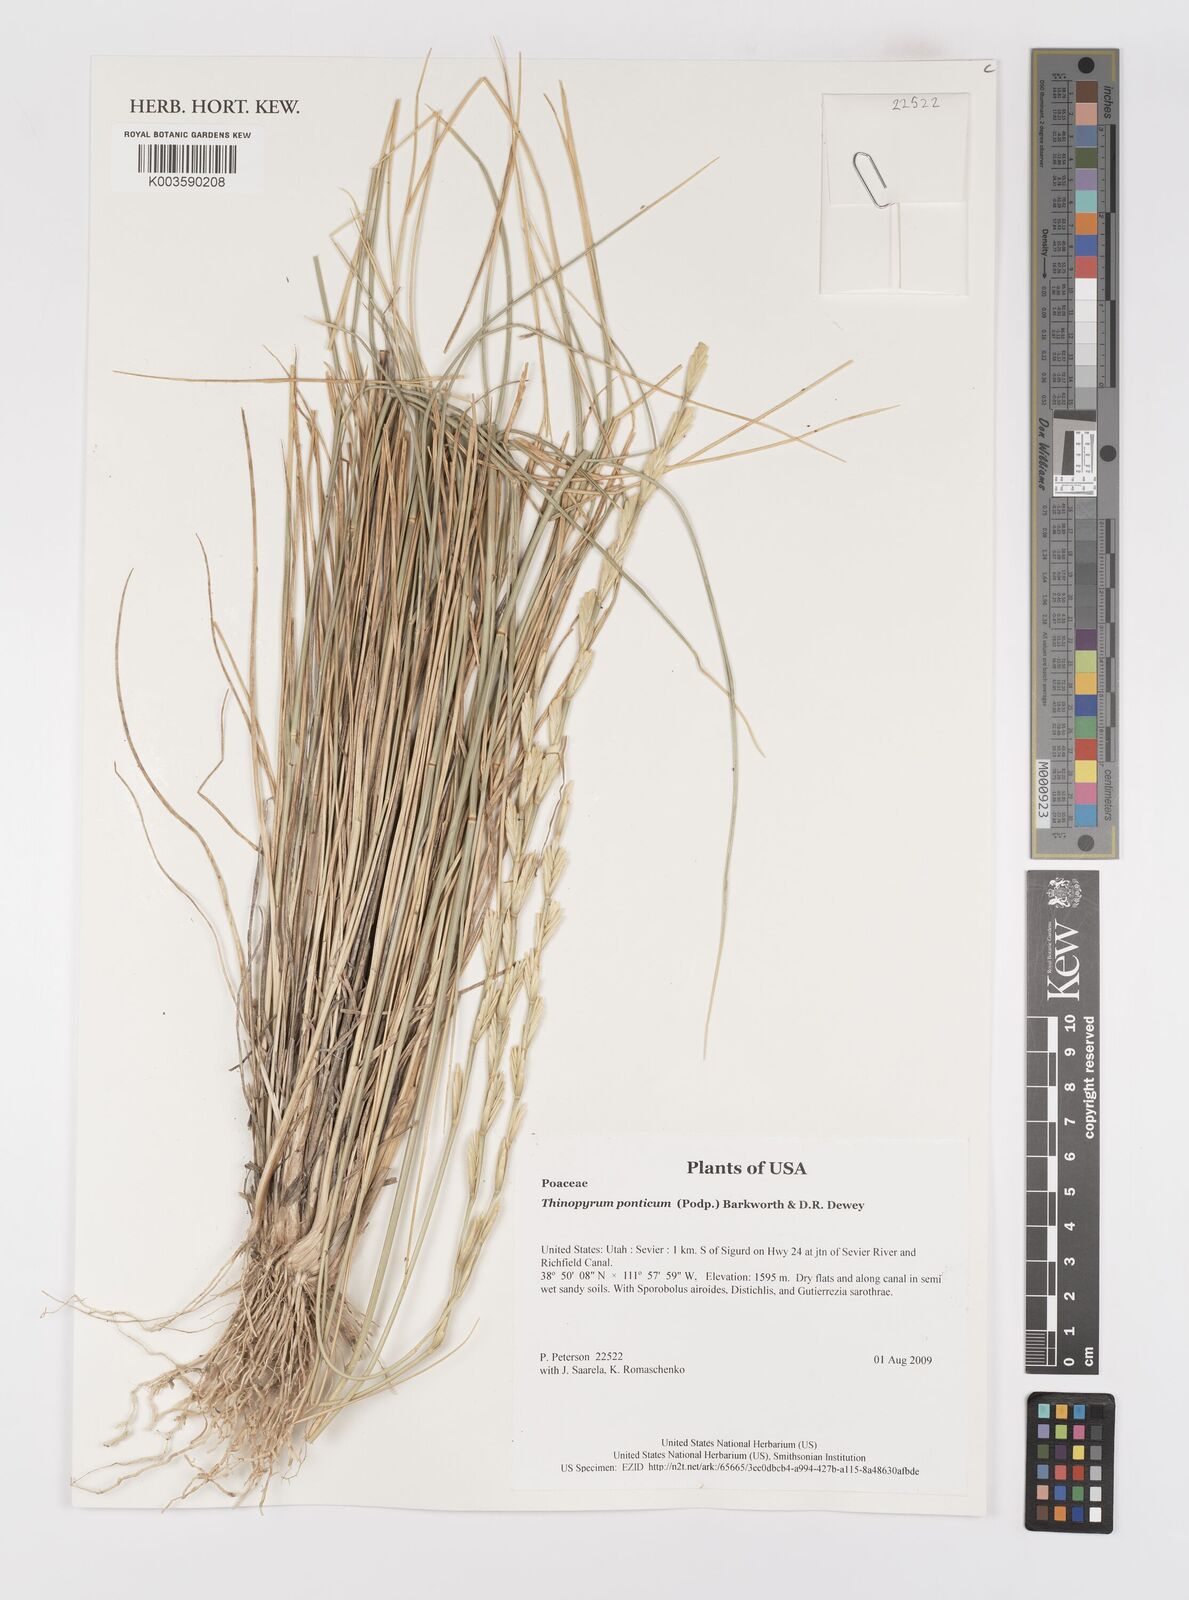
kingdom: Plantae
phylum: Tracheophyta
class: Liliopsida
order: Poales
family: Poaceae
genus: Thinopyrum
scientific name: Thinopyrum elongatum
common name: Tall wheatgrass
